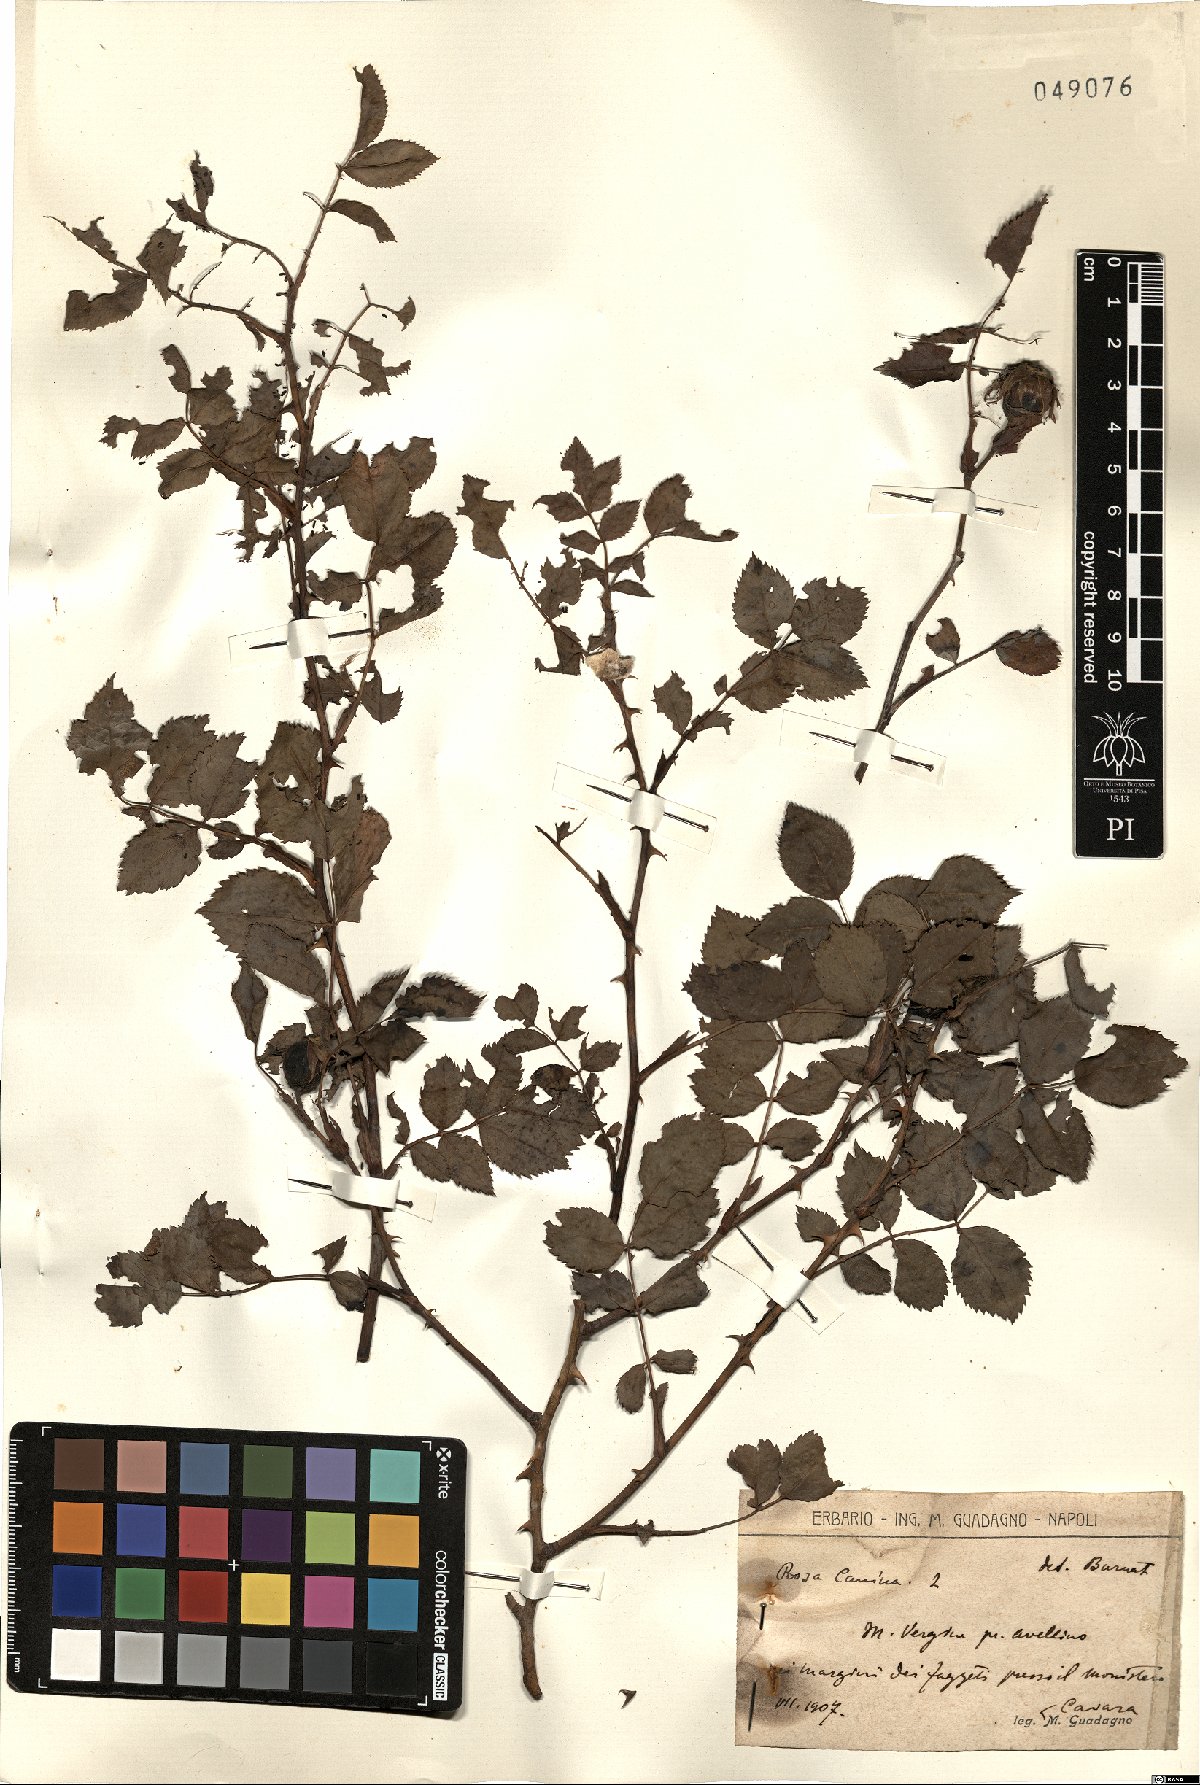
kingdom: Plantae
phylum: Tracheophyta
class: Magnoliopsida
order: Rosales
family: Rosaceae
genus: Rosa
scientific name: Rosa canina
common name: Dog rose
